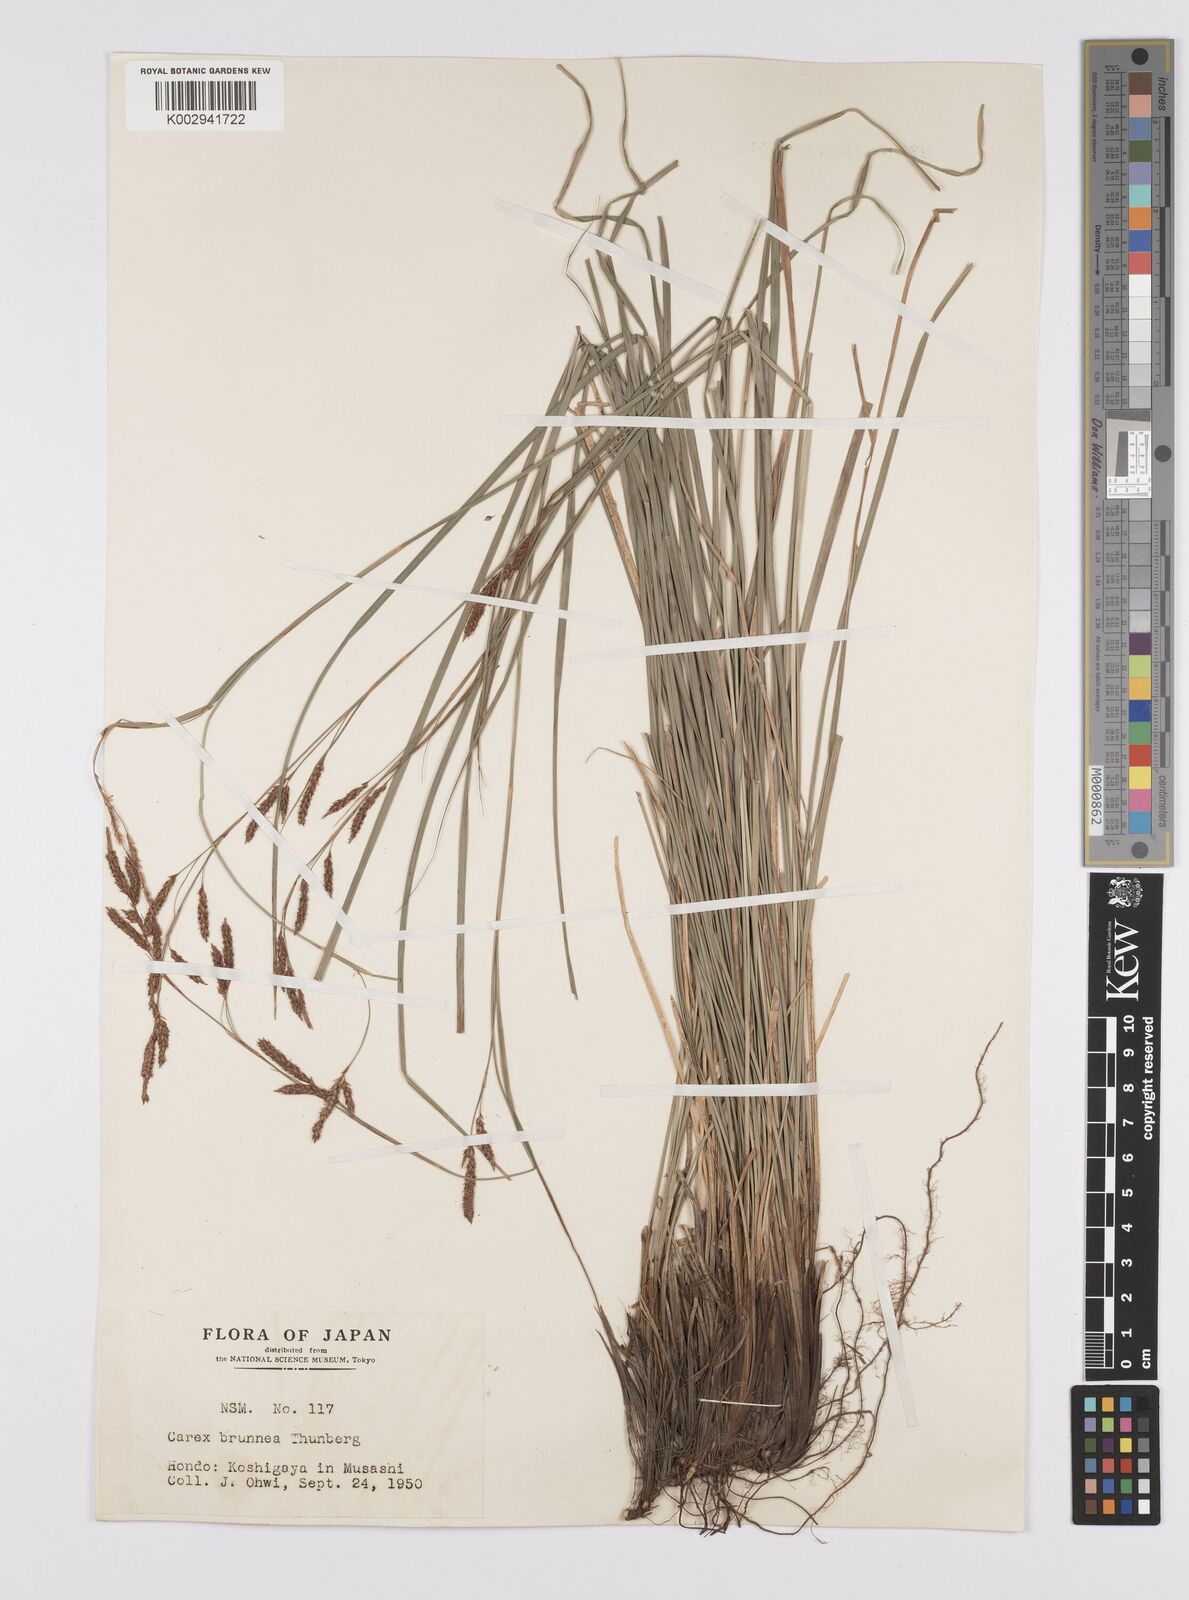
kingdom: Plantae
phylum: Tracheophyta
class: Liliopsida
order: Poales
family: Cyperaceae
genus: Carex
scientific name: Carex brunnea
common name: Greater brown sedge
